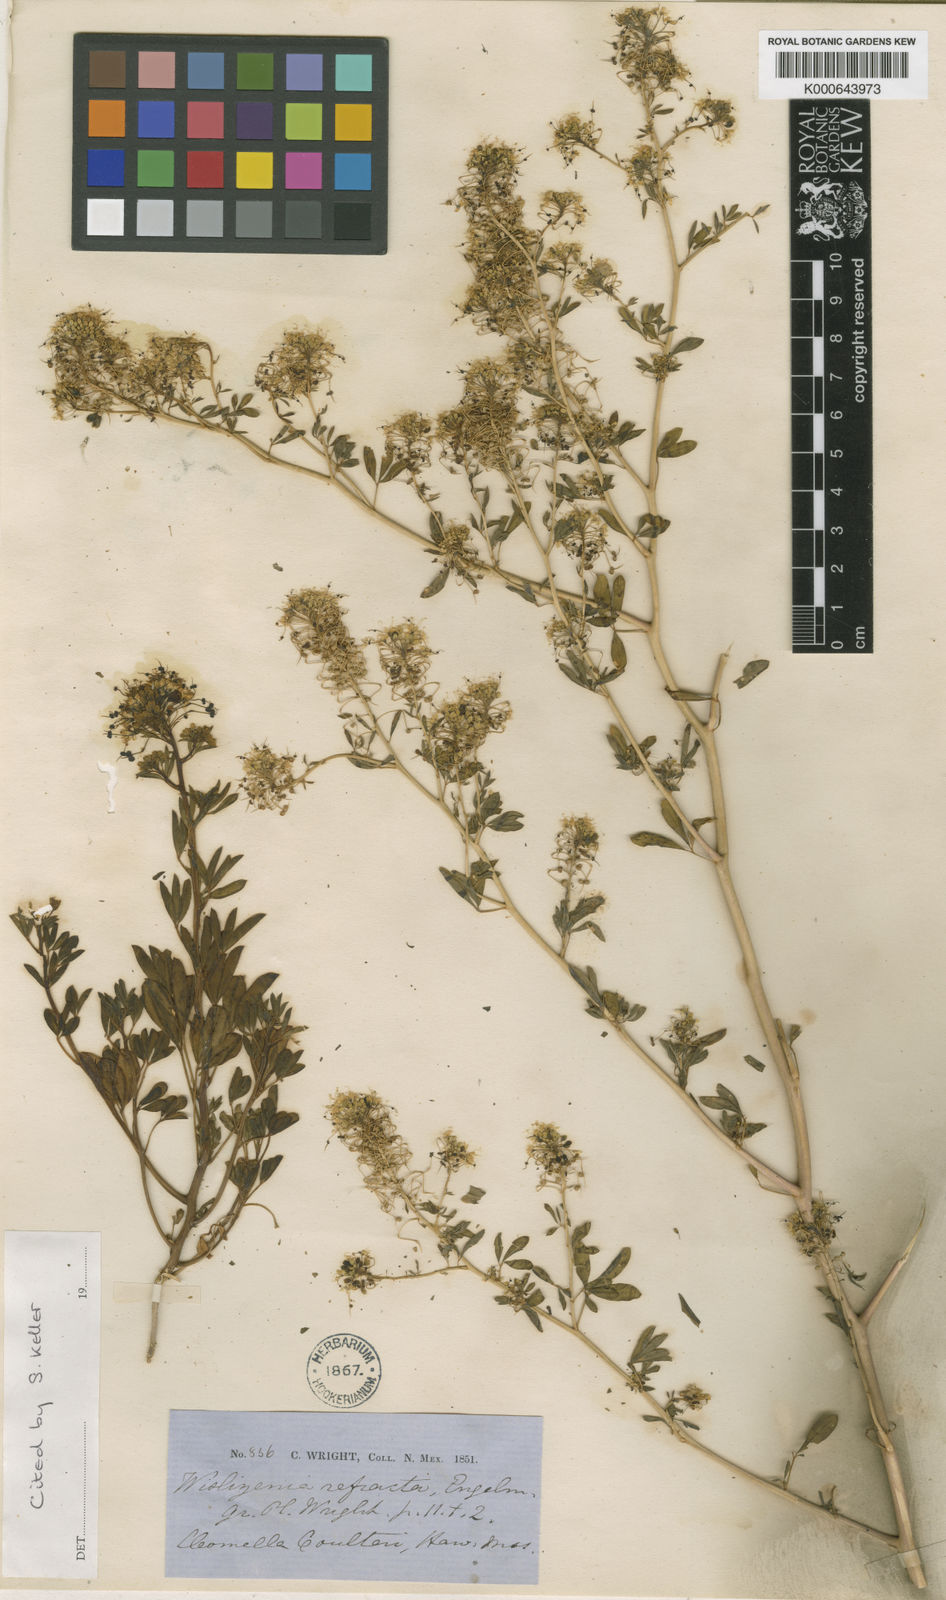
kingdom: Plantae
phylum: Tracheophyta
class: Magnoliopsida
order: Brassicales
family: Cleomaceae
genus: Cleomella
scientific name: Cleomella refracta
